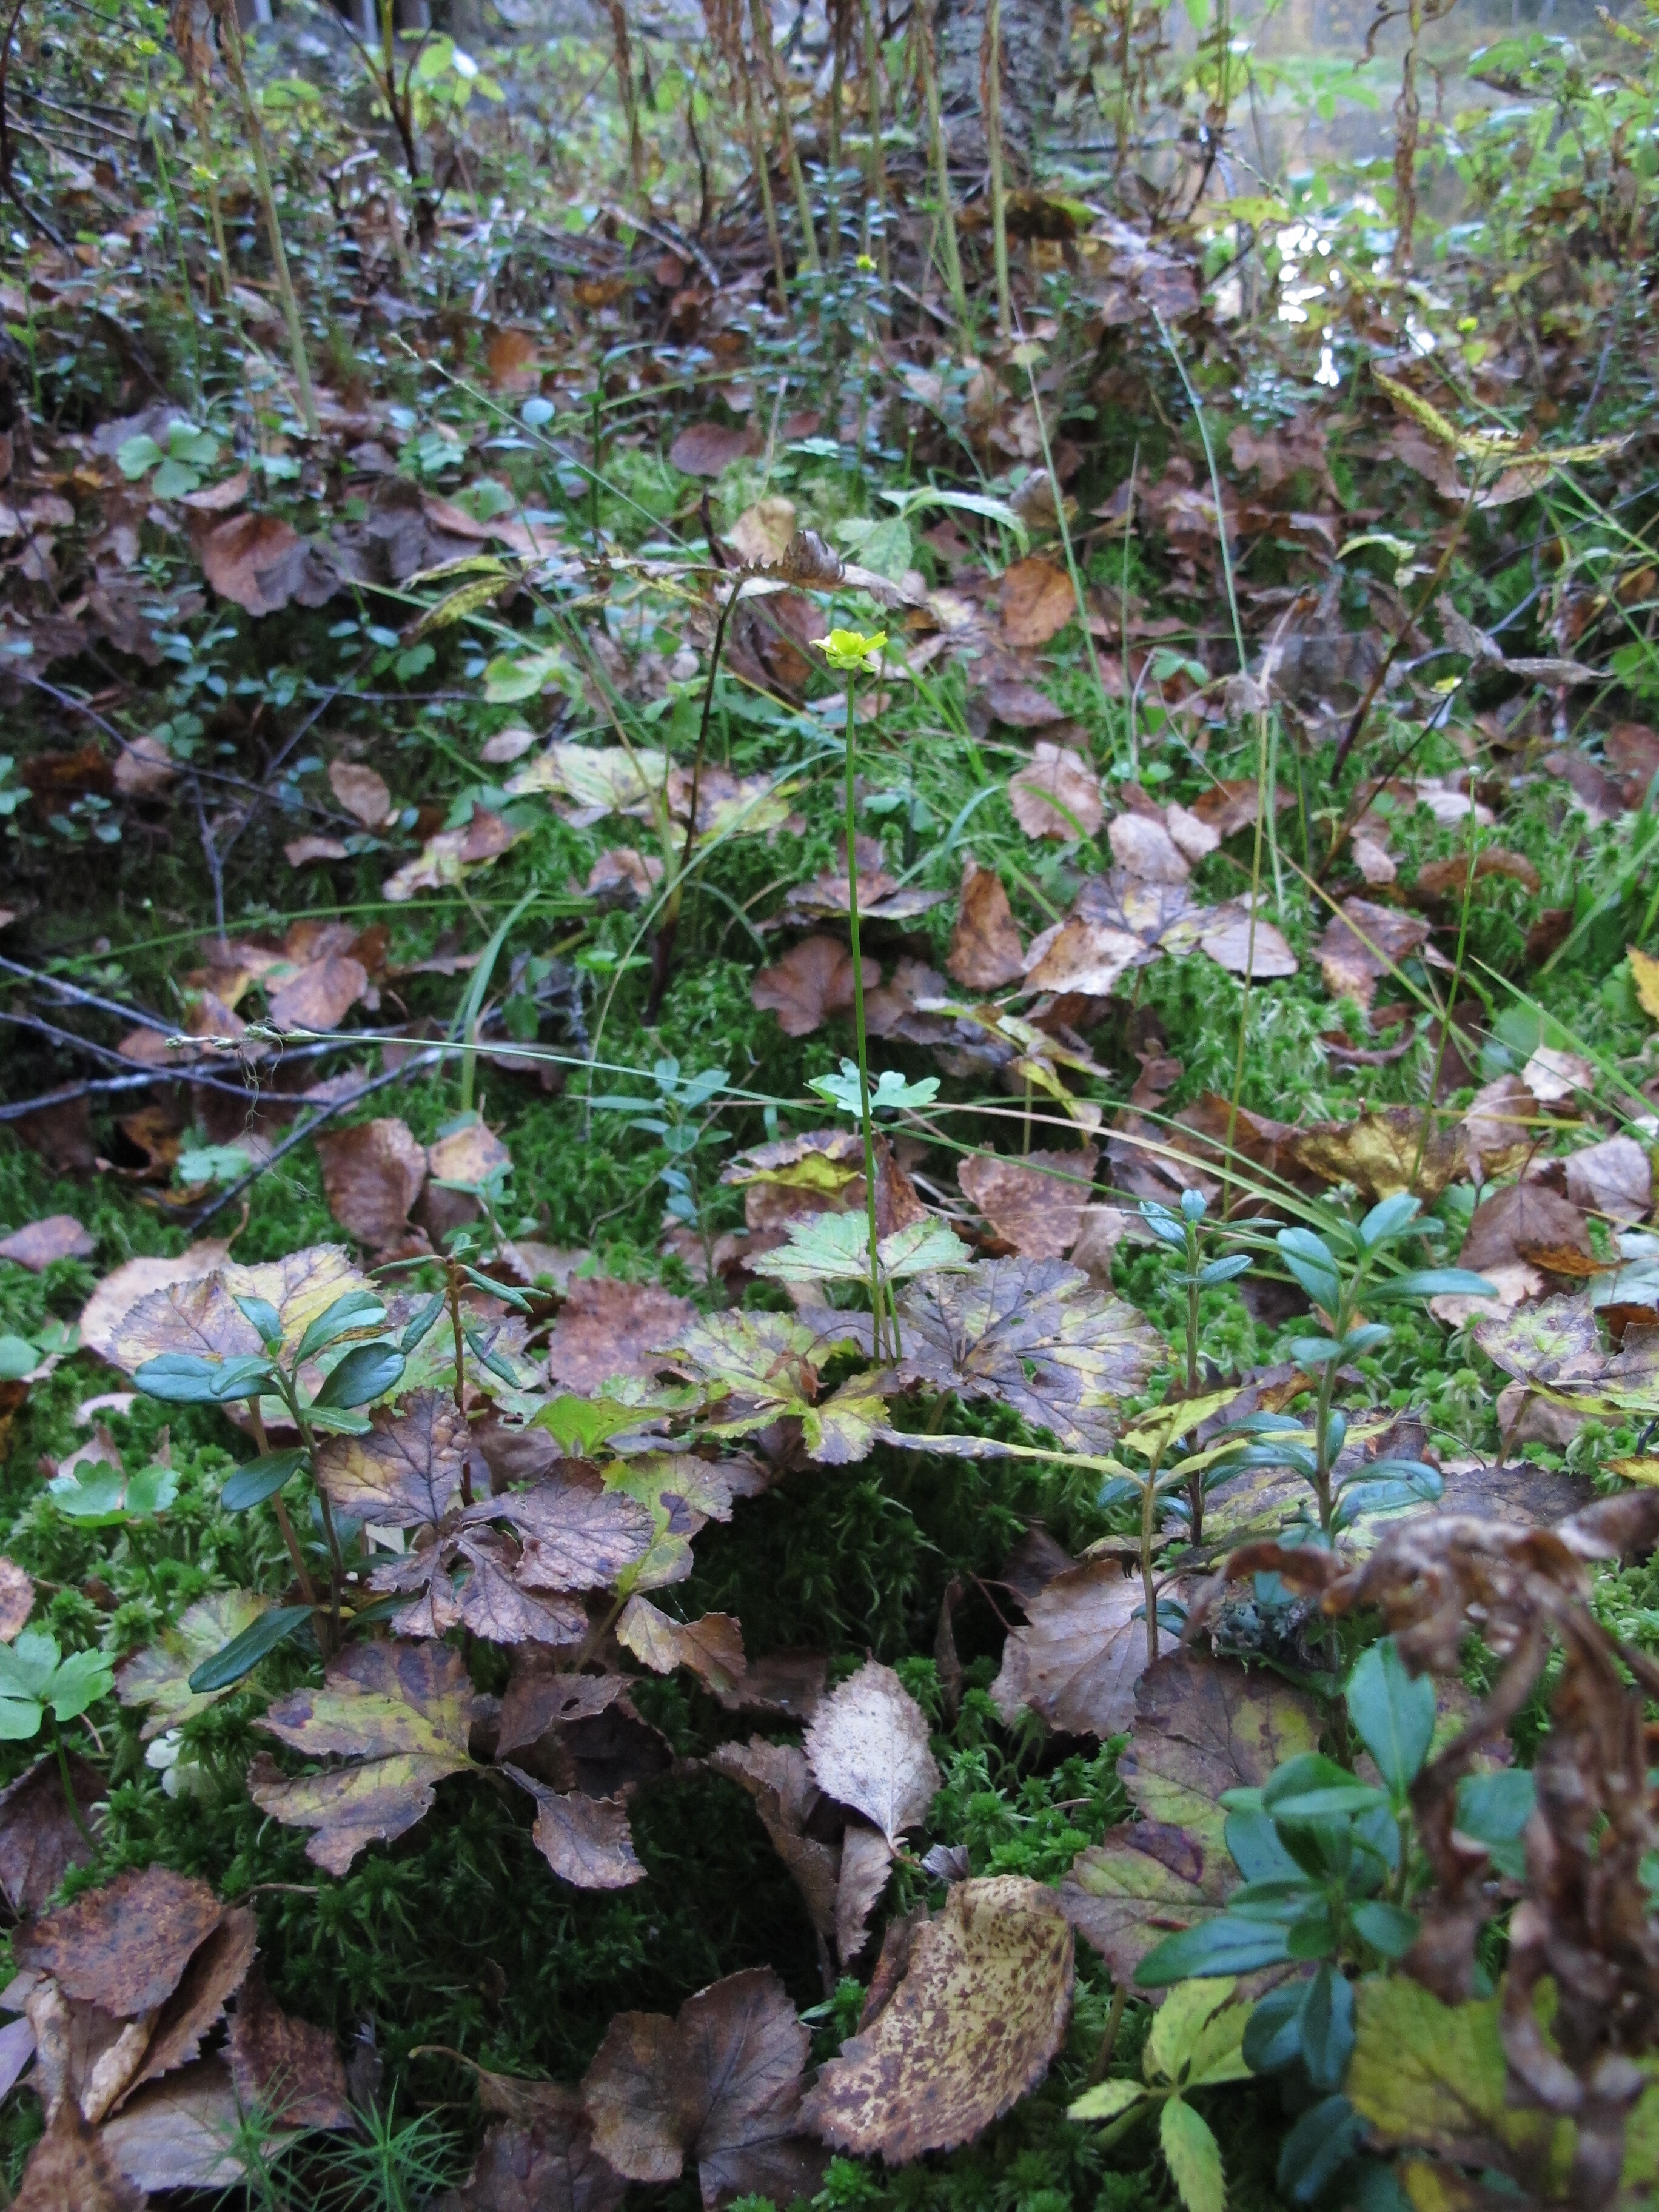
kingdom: Plantae
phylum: Tracheophyta
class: Magnoliopsida
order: Ranunculales
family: Ranunculaceae
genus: Coptidium
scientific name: Coptidium lapponicum
